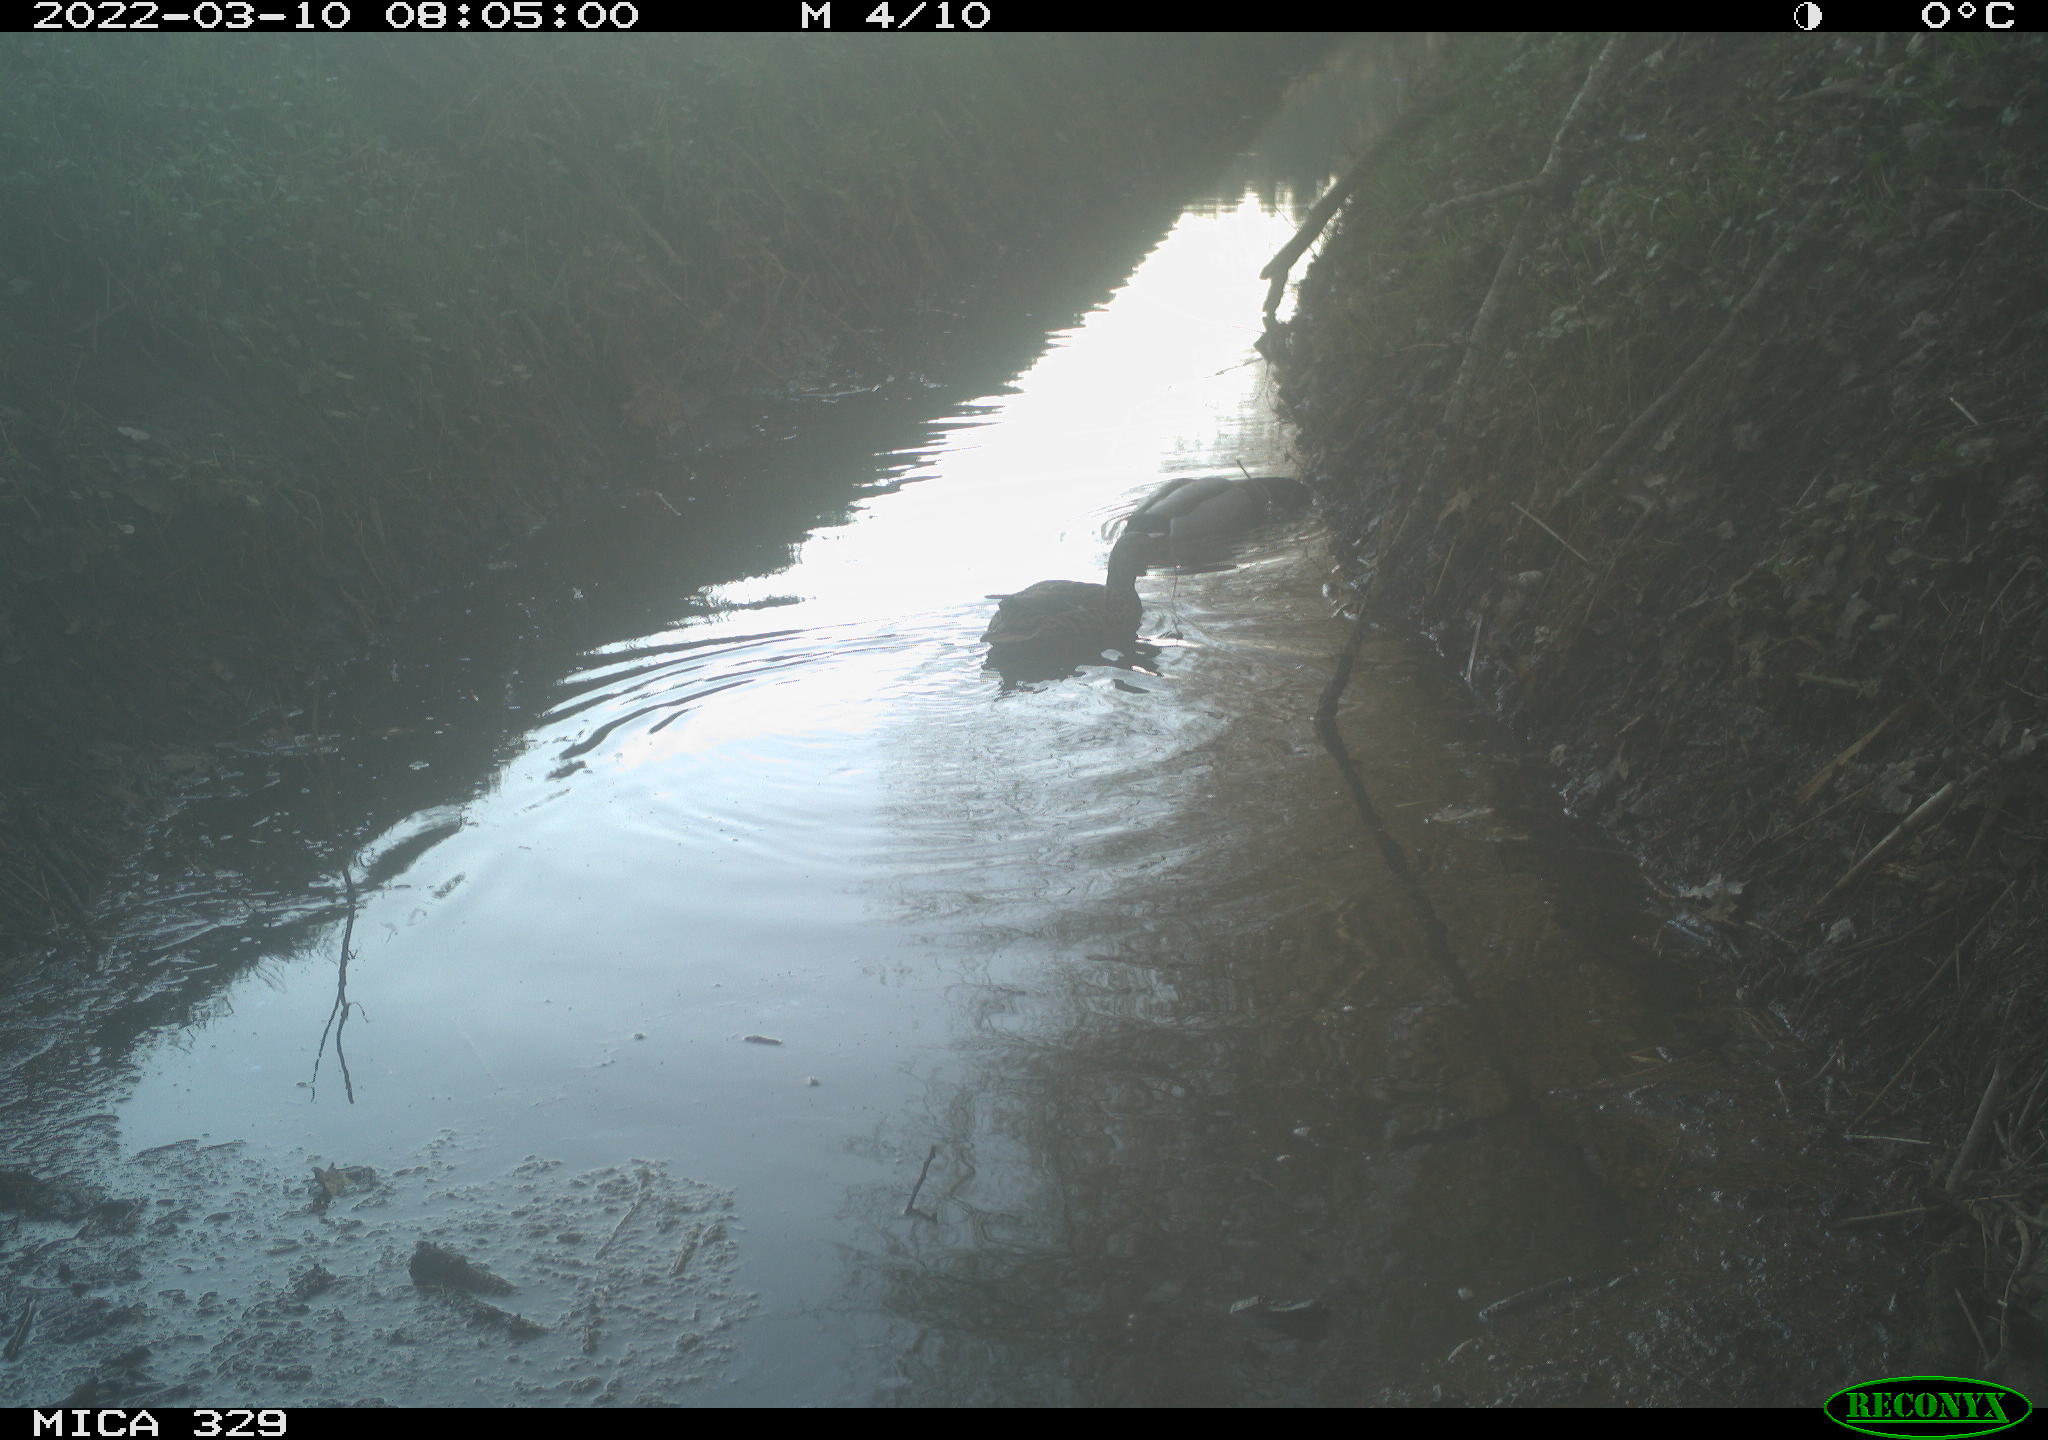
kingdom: Animalia
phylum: Chordata
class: Aves
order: Gruiformes
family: Rallidae
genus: Fulica
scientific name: Fulica atra
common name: Eurasian coot
